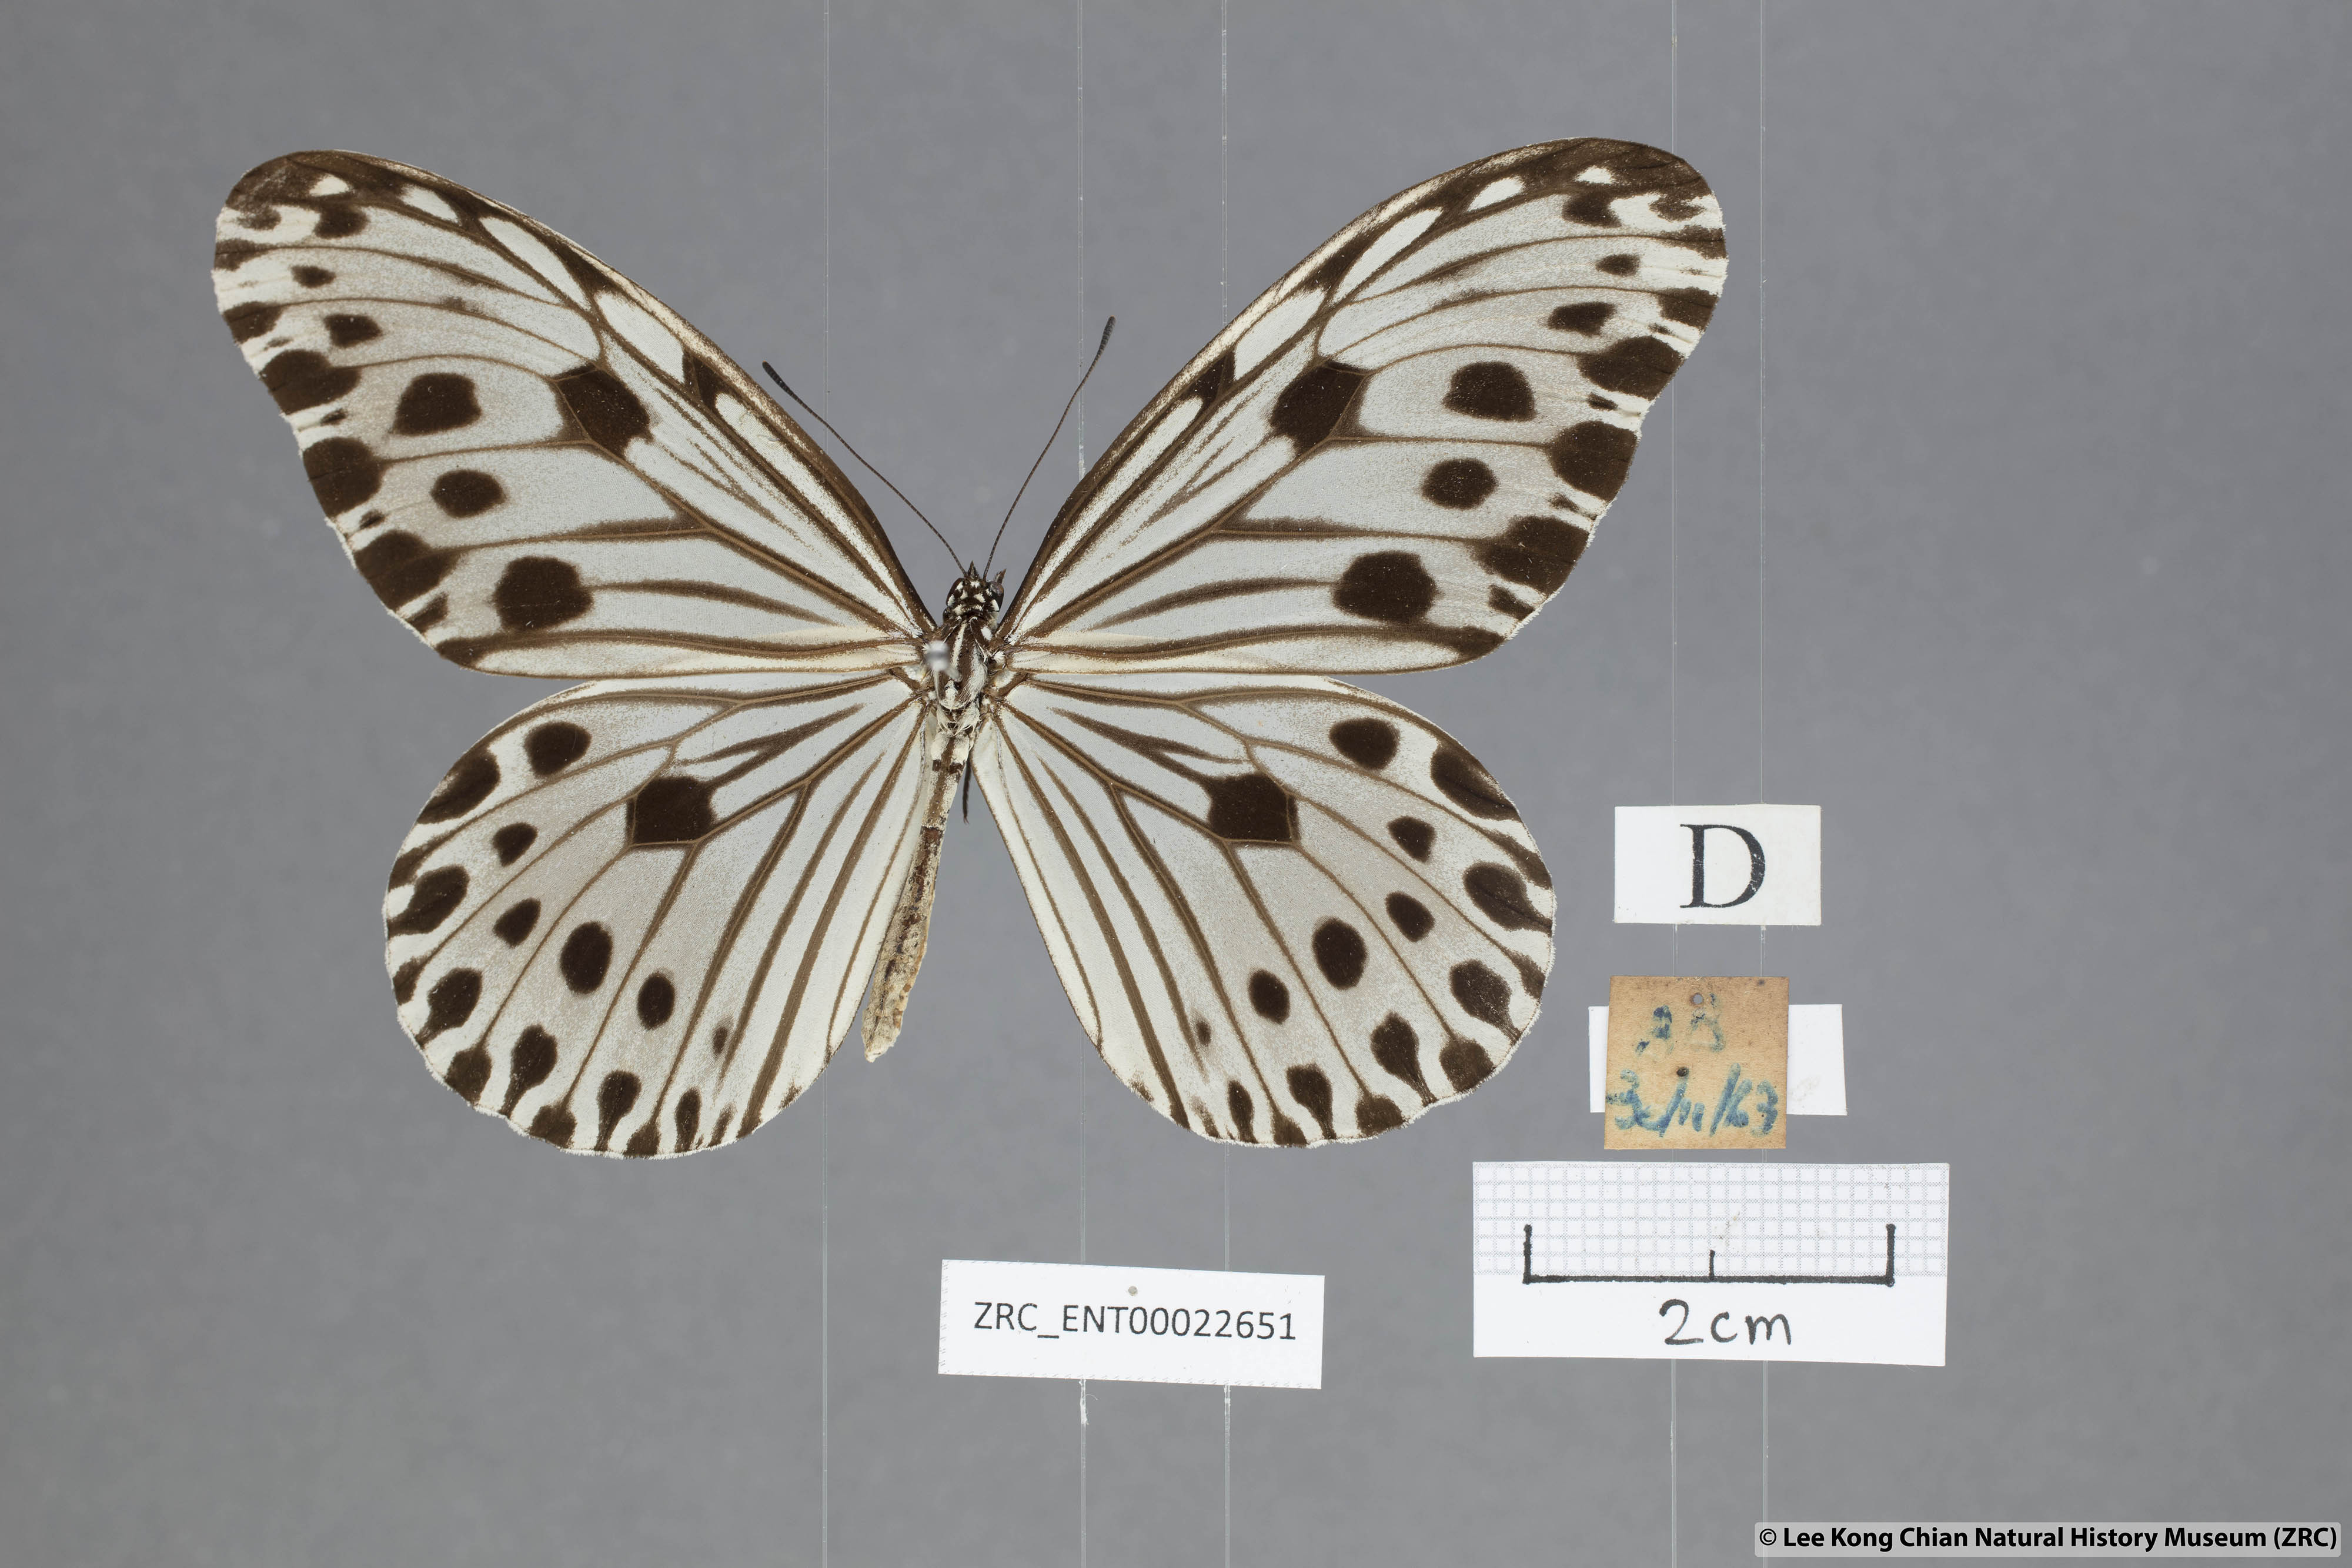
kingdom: Animalia
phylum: Arthropoda
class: Insecta
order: Lepidoptera
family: Nymphalidae
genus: Ideopsis
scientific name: Ideopsis gaura
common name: Smaller wood nymph
